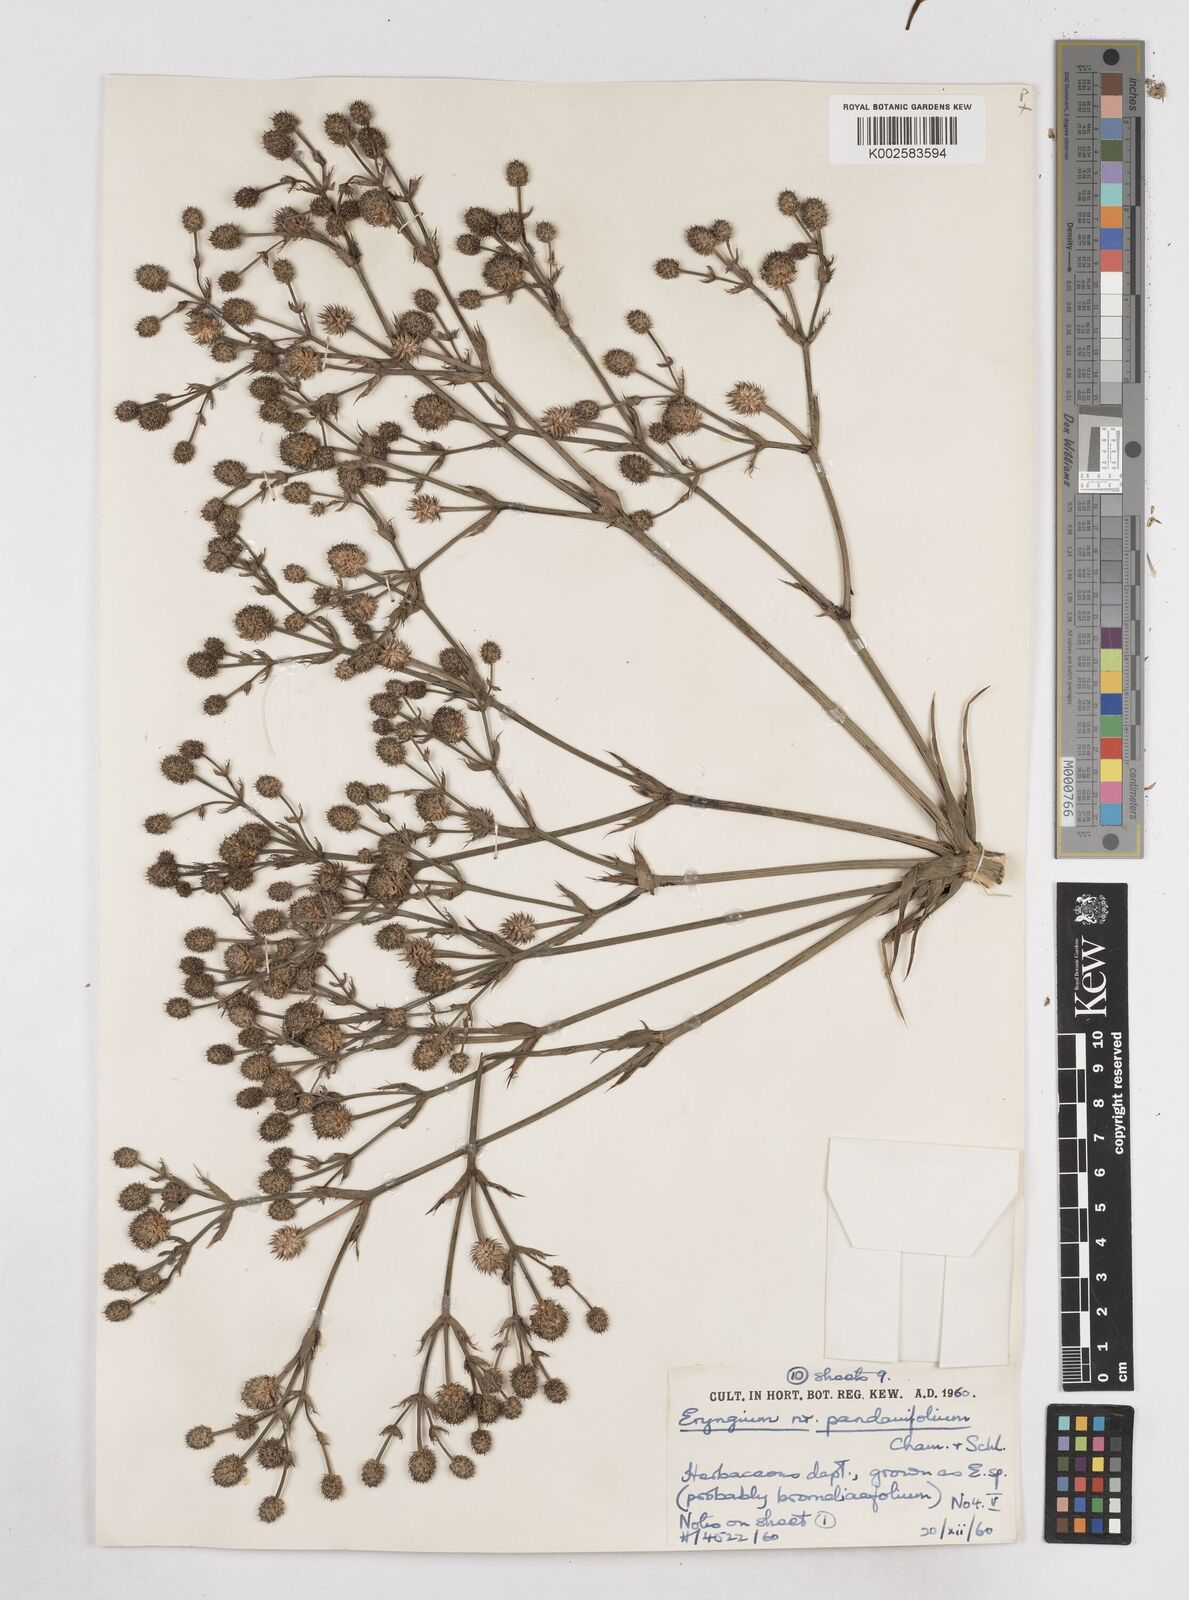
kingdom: Plantae
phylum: Tracheophyta
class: Magnoliopsida
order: Apiales
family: Apiaceae
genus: Eryngium
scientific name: Eryngium pandanifolium
